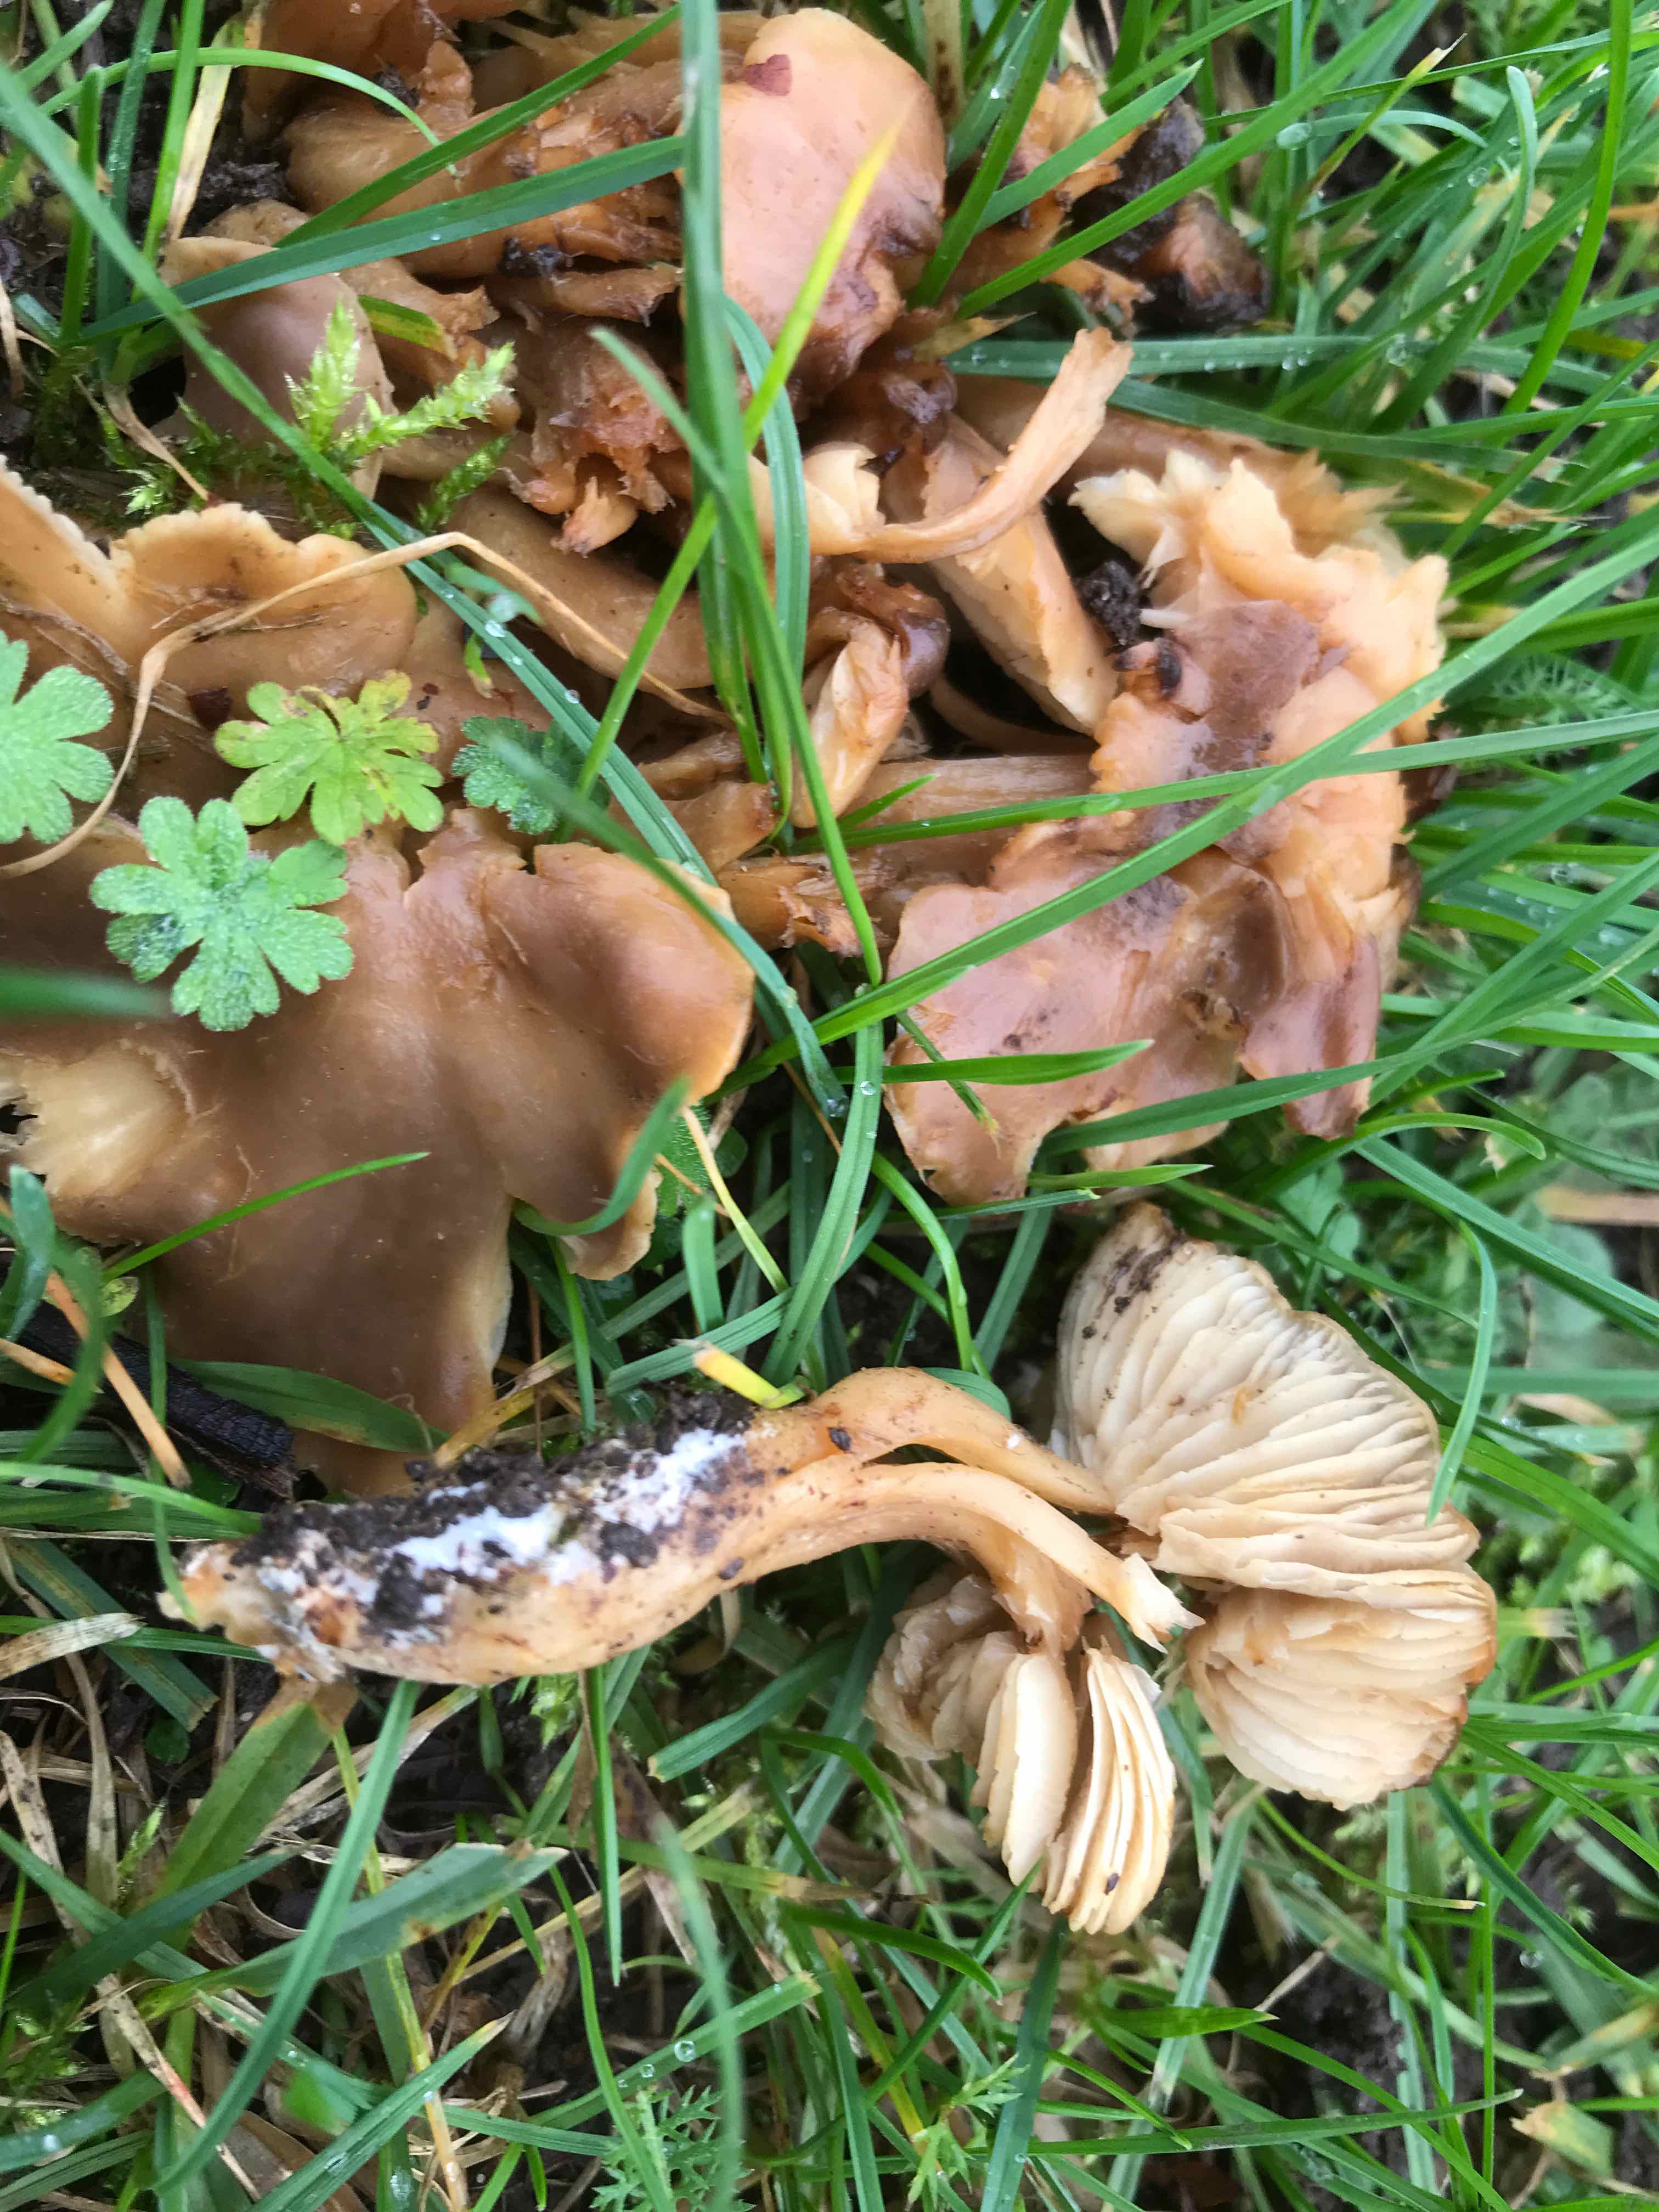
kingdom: Fungi
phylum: Basidiomycota
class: Agaricomycetes
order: Agaricales
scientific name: Agaricales
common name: champignonordenen
